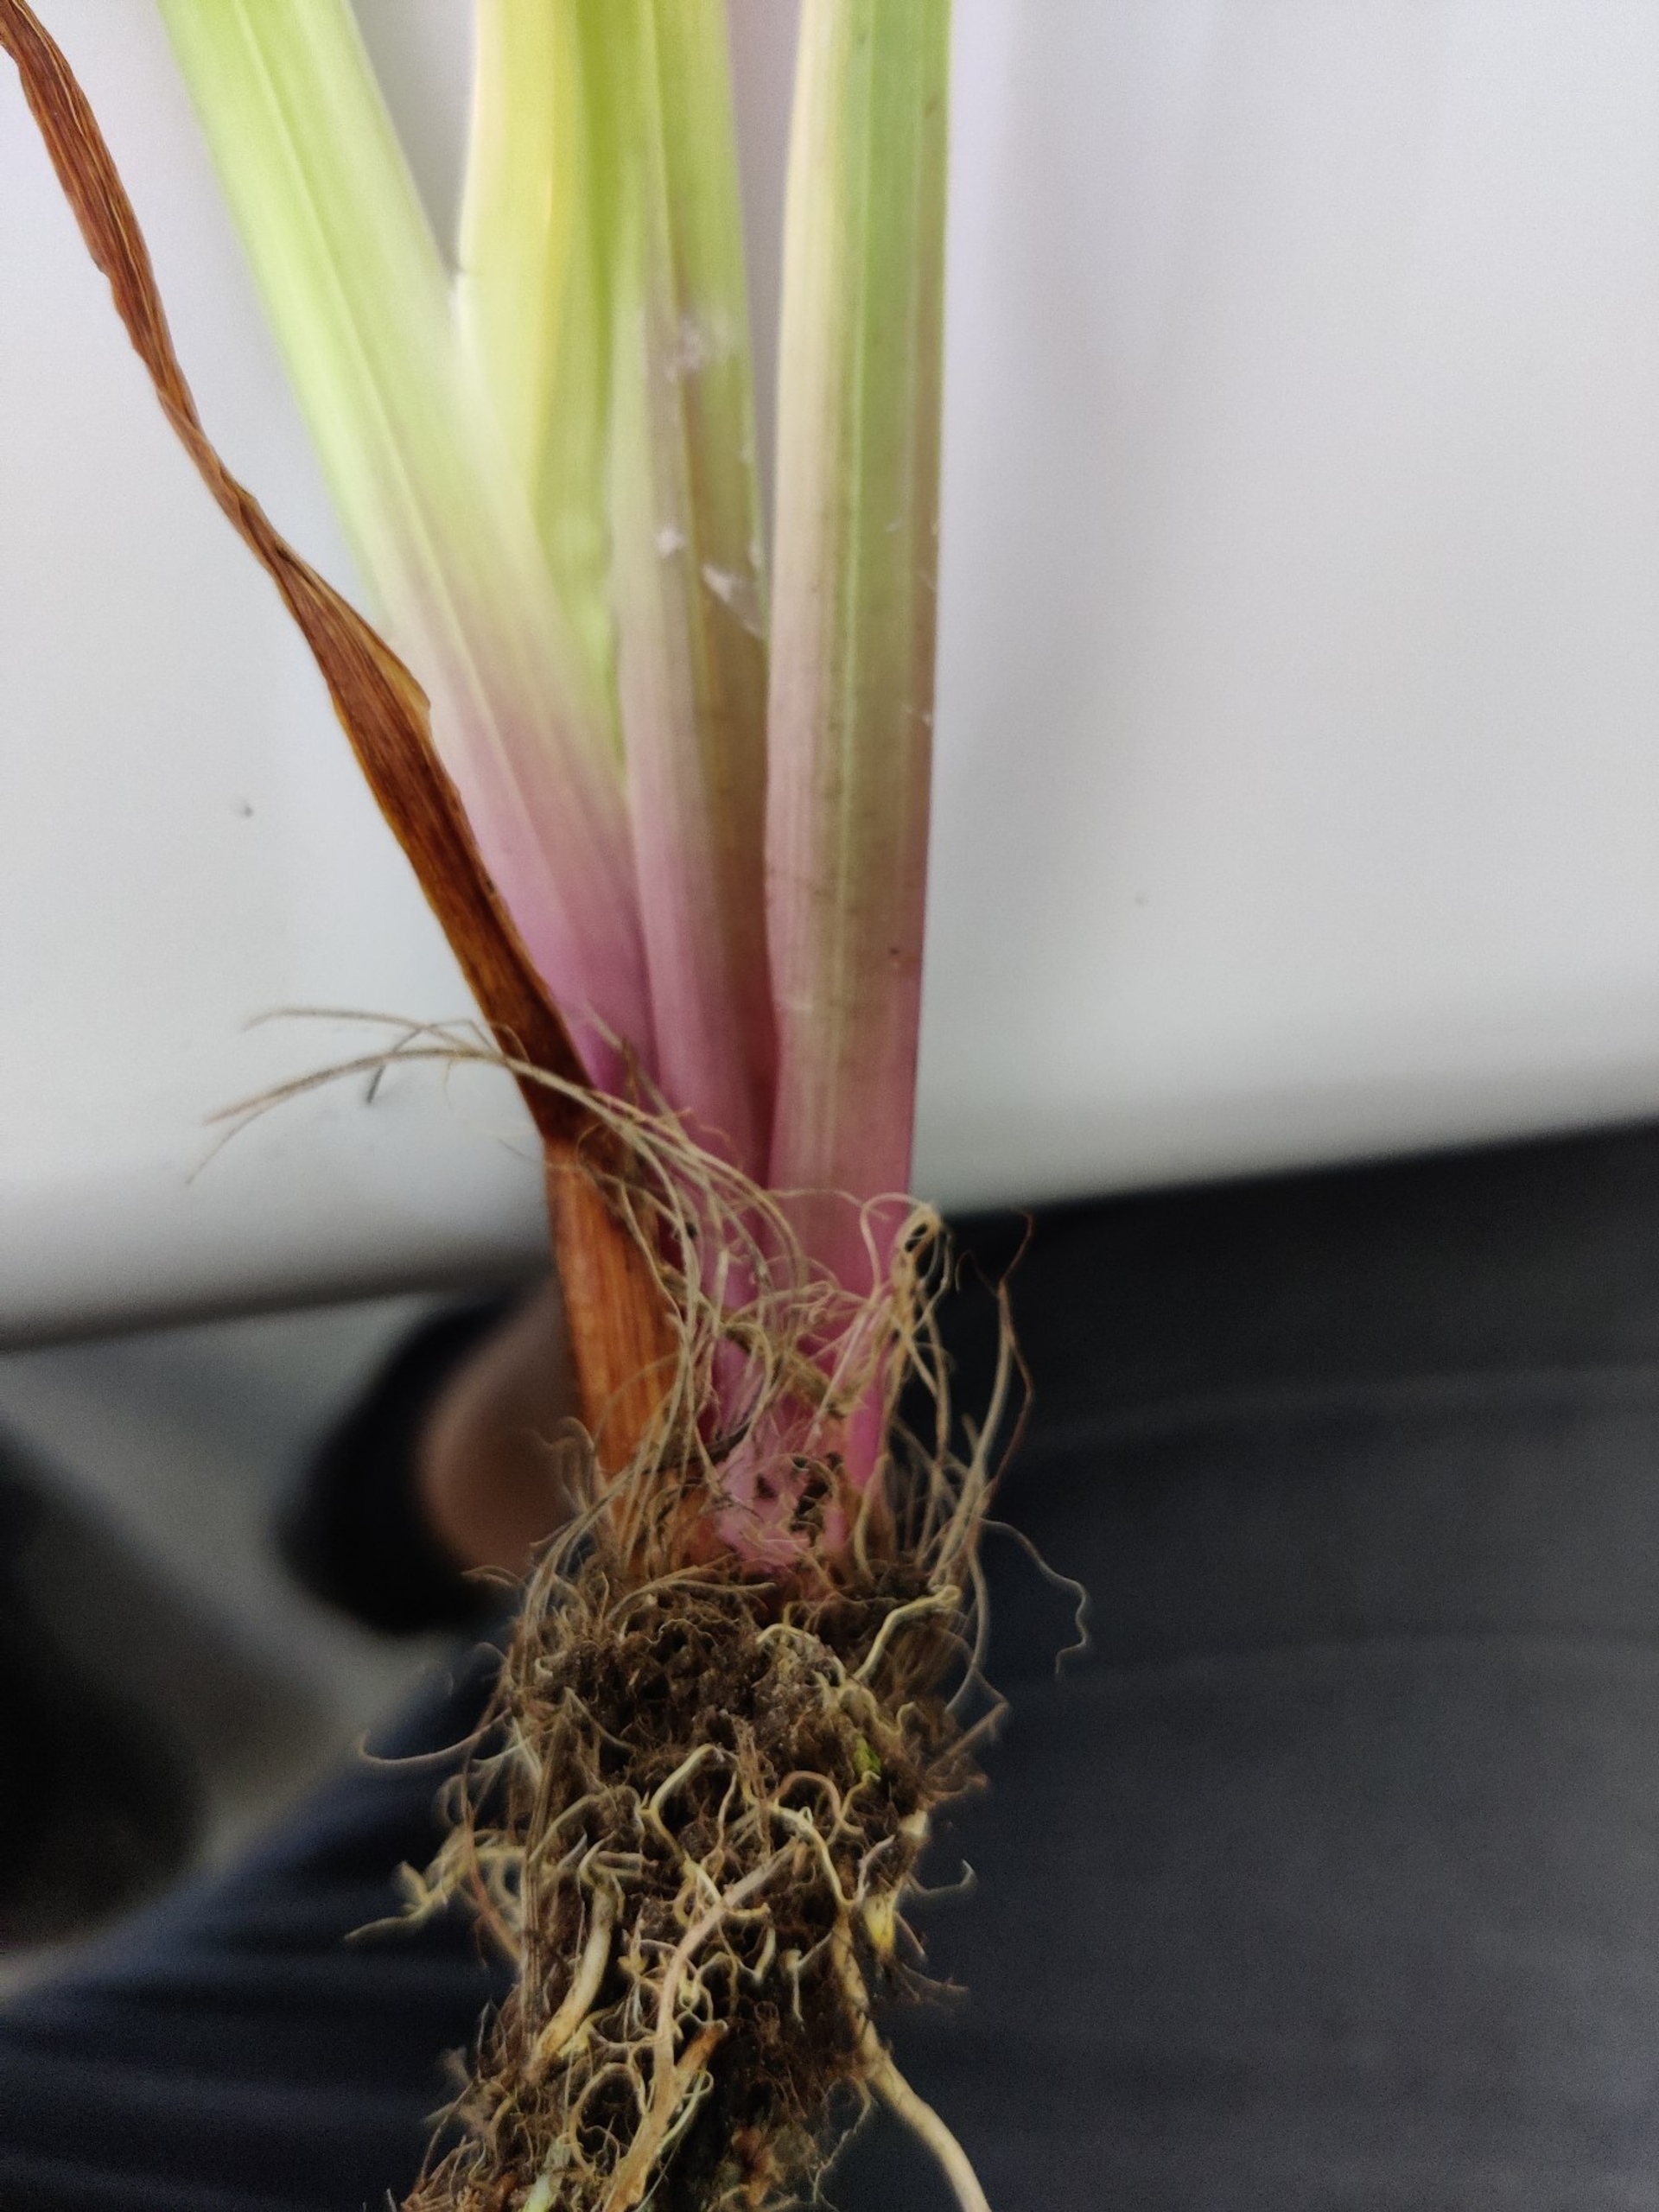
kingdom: Plantae
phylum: Tracheophyta
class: Liliopsida
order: Acorales
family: Acoraceae
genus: Acorus
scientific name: Acorus calamus
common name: Kalmus
